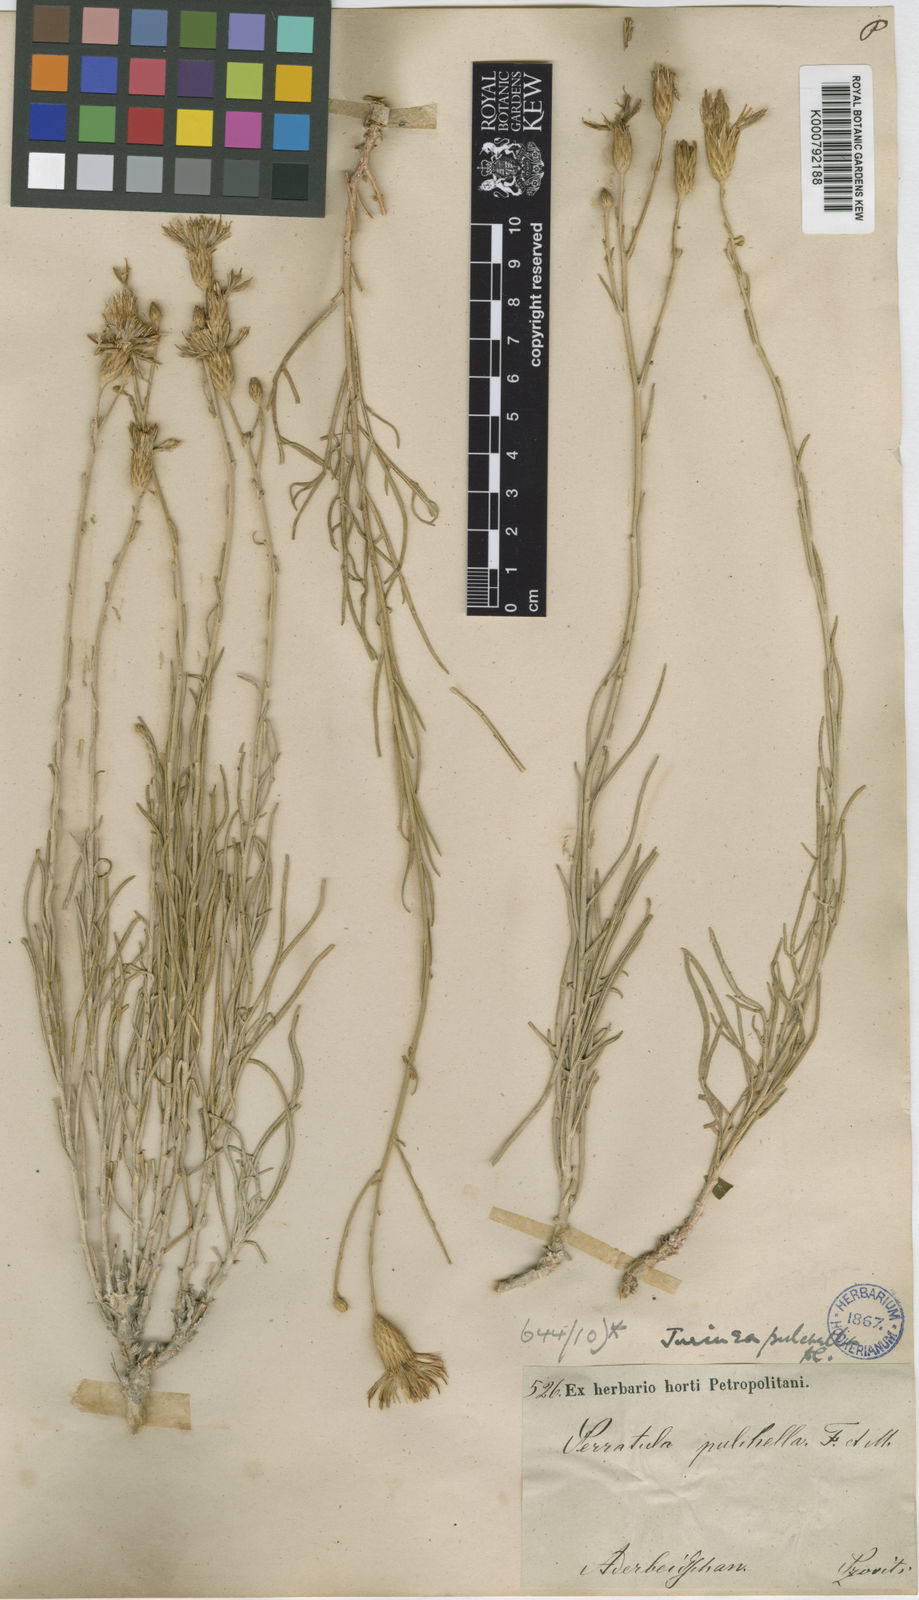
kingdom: Plantae
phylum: Tracheophyta
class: Magnoliopsida
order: Asterales
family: Asteraceae
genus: Jurinea
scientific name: Jurinea pulchella
